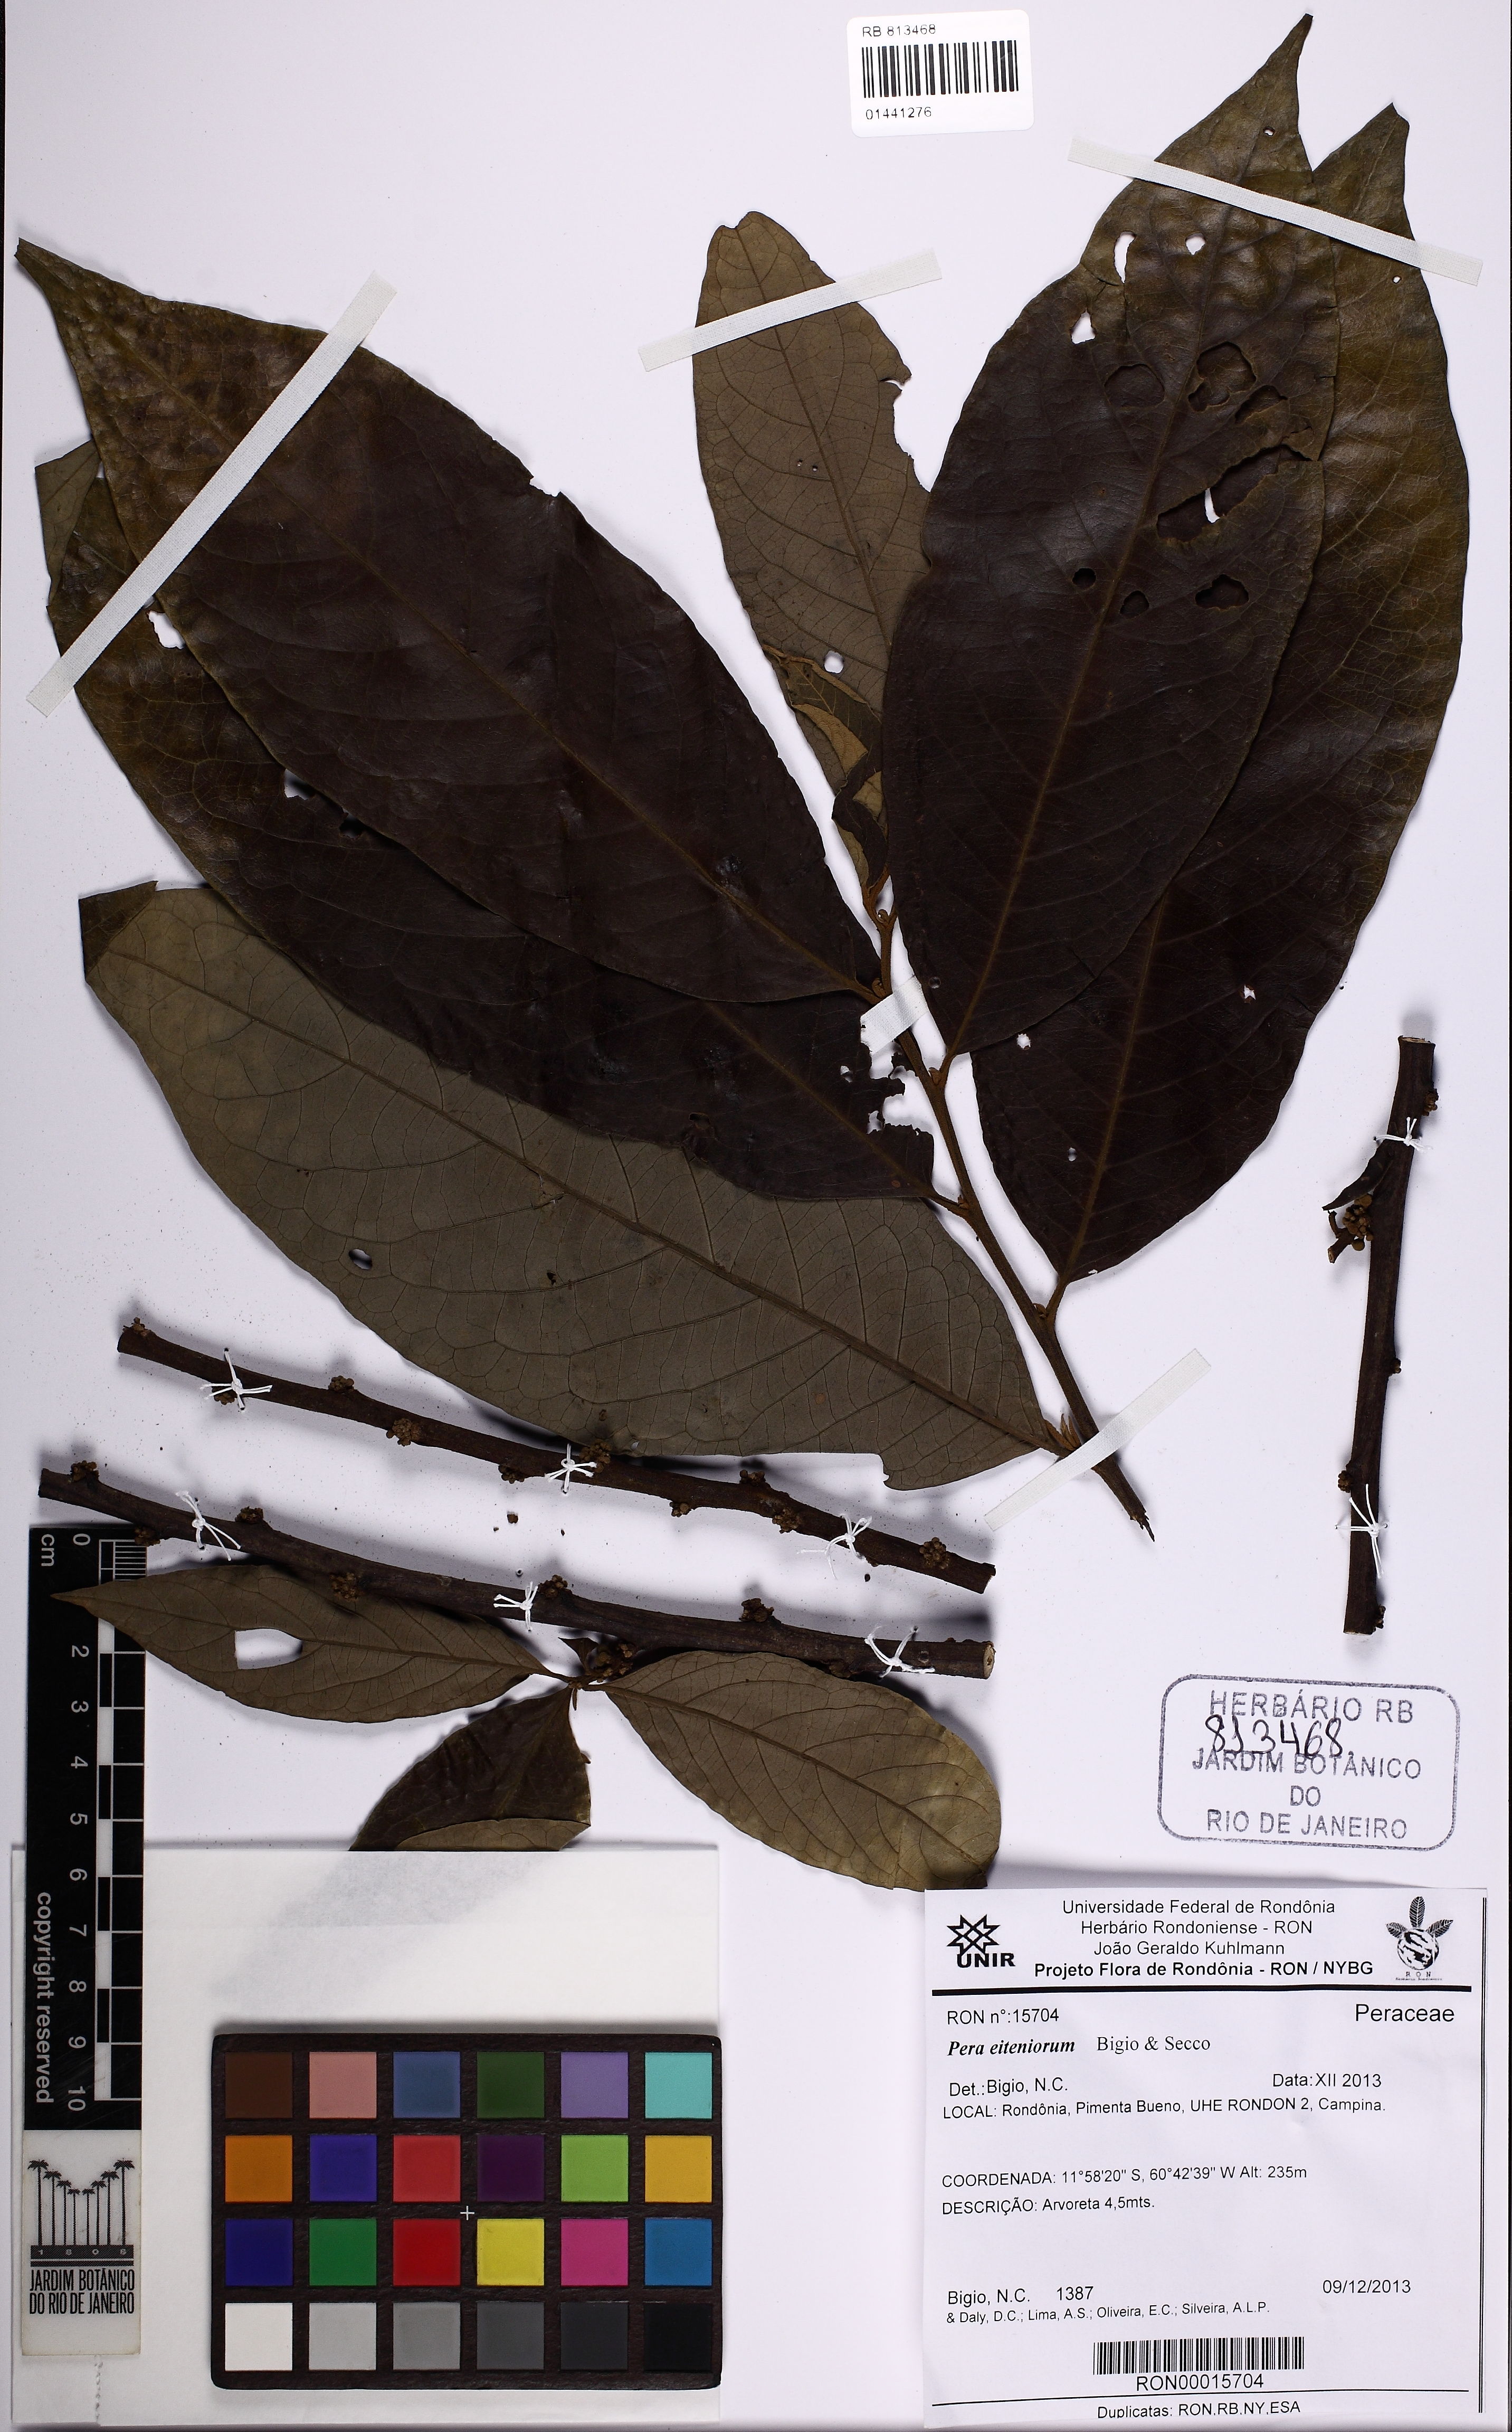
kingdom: Plantae
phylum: Tracheophyta
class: Magnoliopsida
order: Malpighiales
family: Peraceae
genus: Pera
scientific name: Pera eiteniorum
